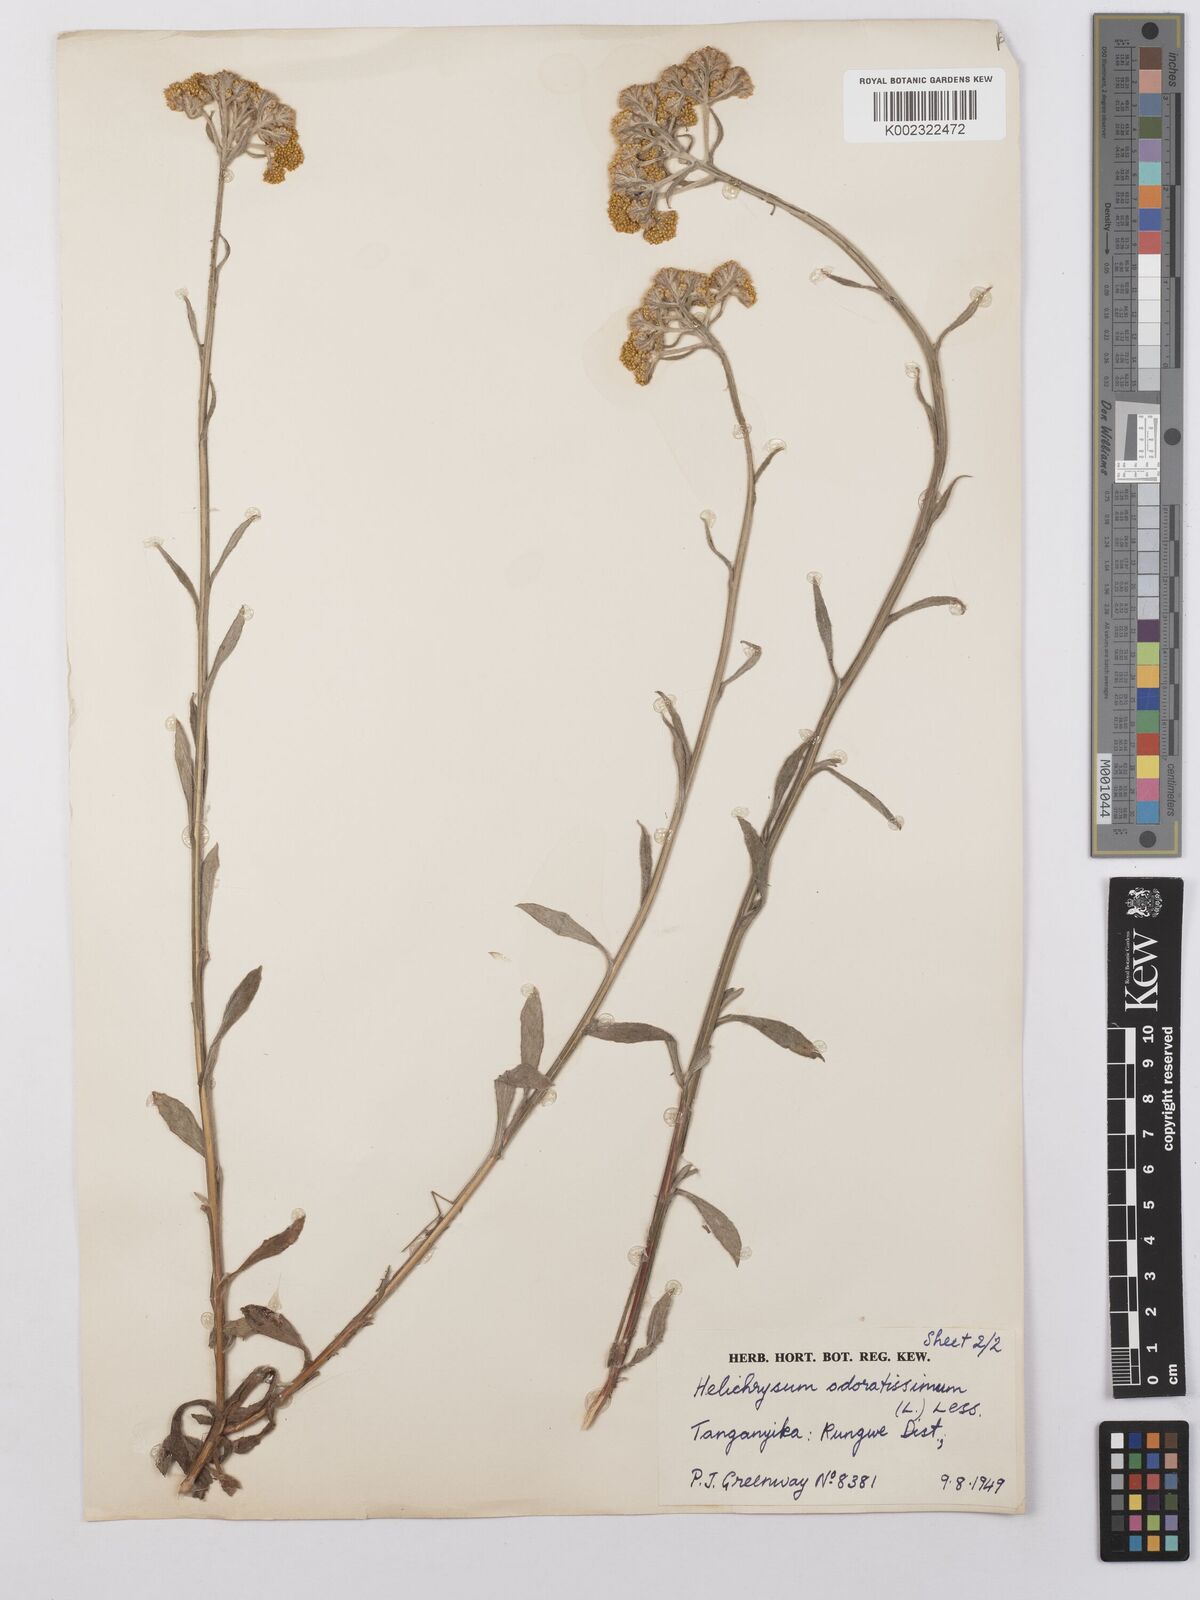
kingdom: Plantae
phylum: Tracheophyta
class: Magnoliopsida
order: Asterales
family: Asteraceae
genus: Helichrysum
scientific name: Helichrysum stenopterum
